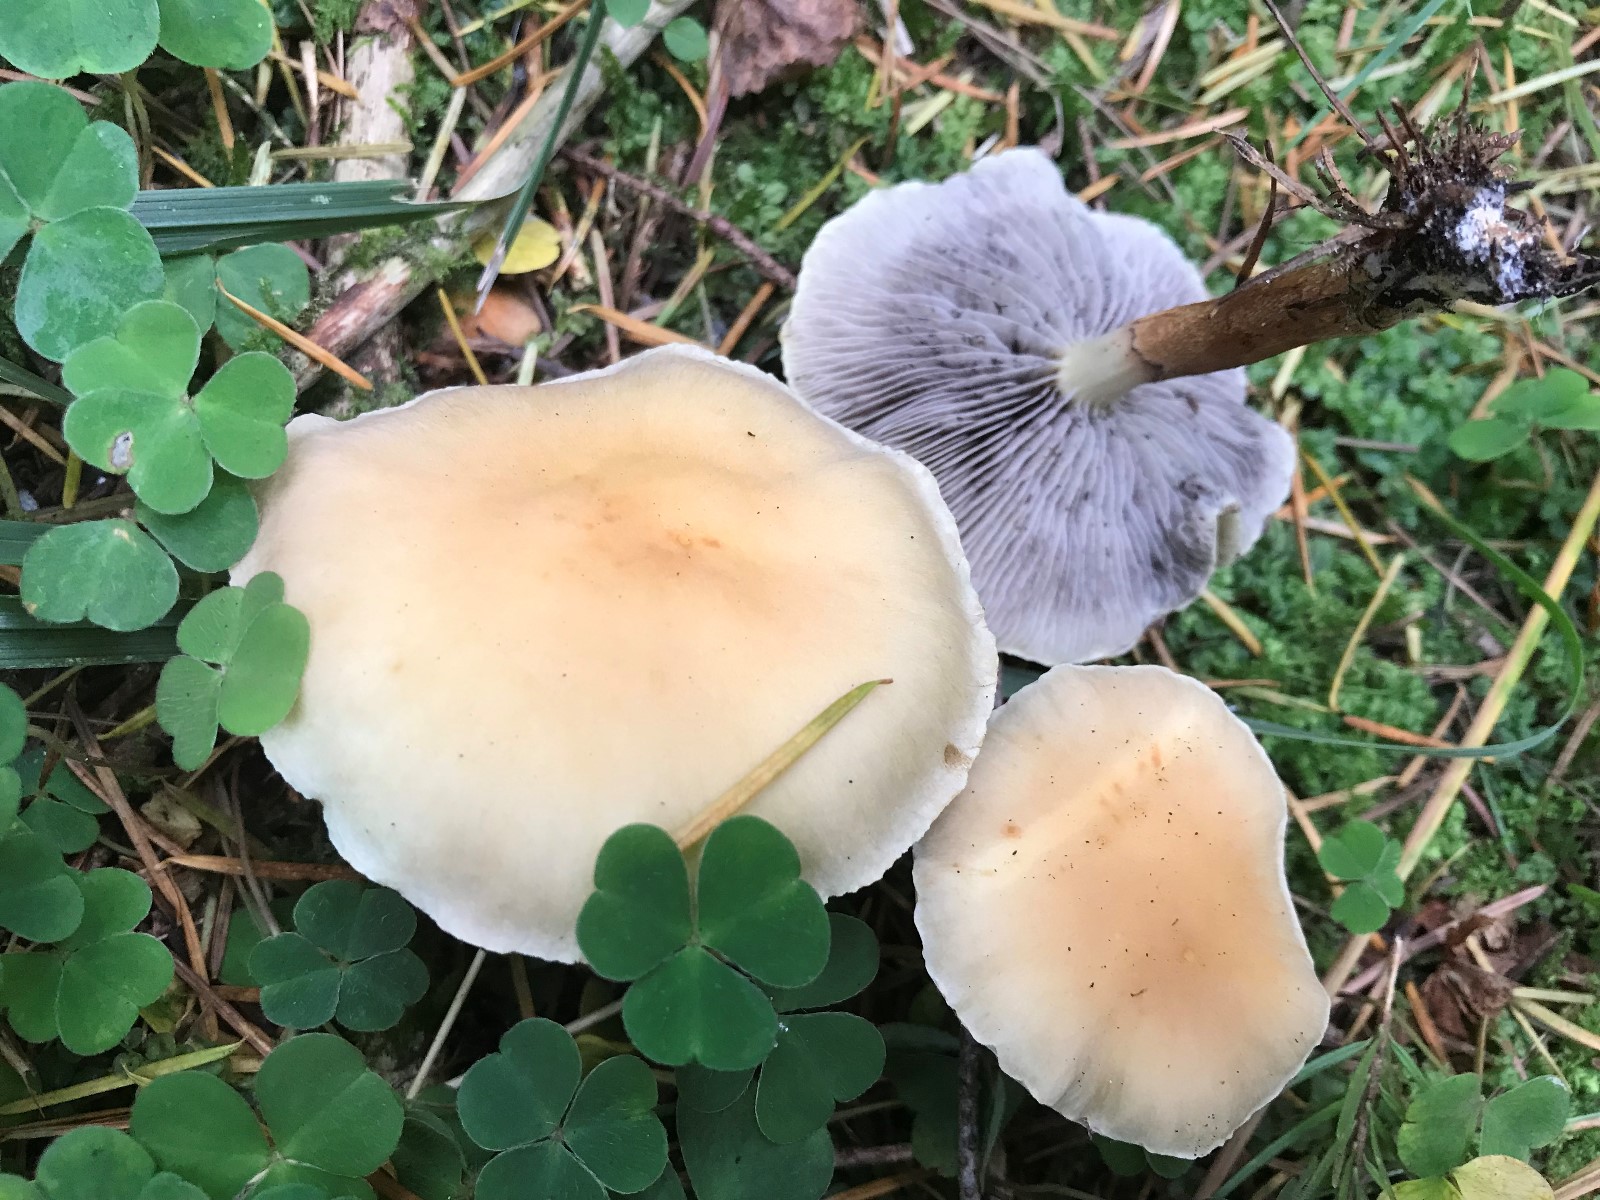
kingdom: Fungi
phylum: Basidiomycota
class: Agaricomycetes
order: Agaricales
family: Strophariaceae
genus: Hypholoma
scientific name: Hypholoma capnoides
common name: gran-svovlhat
